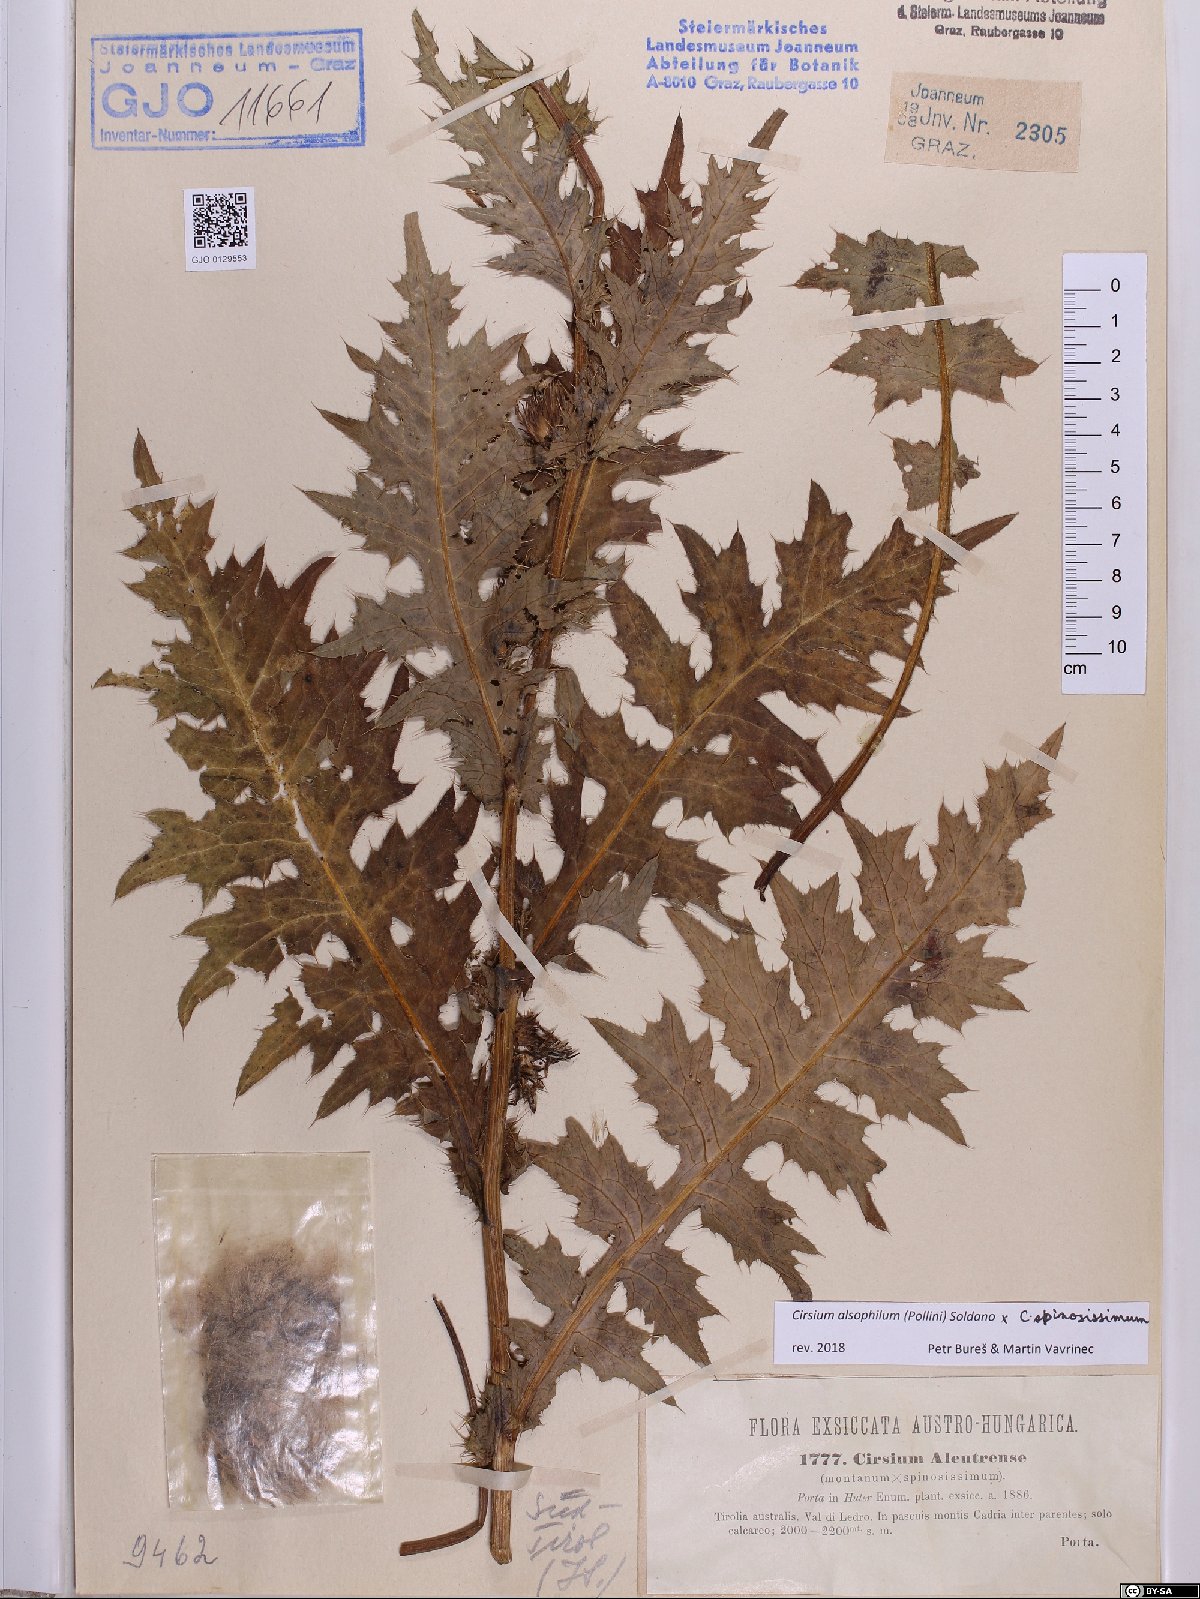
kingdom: Plantae
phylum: Tracheophyta
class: Magnoliopsida
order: Asterales
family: Asteraceae
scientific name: Asteraceae
